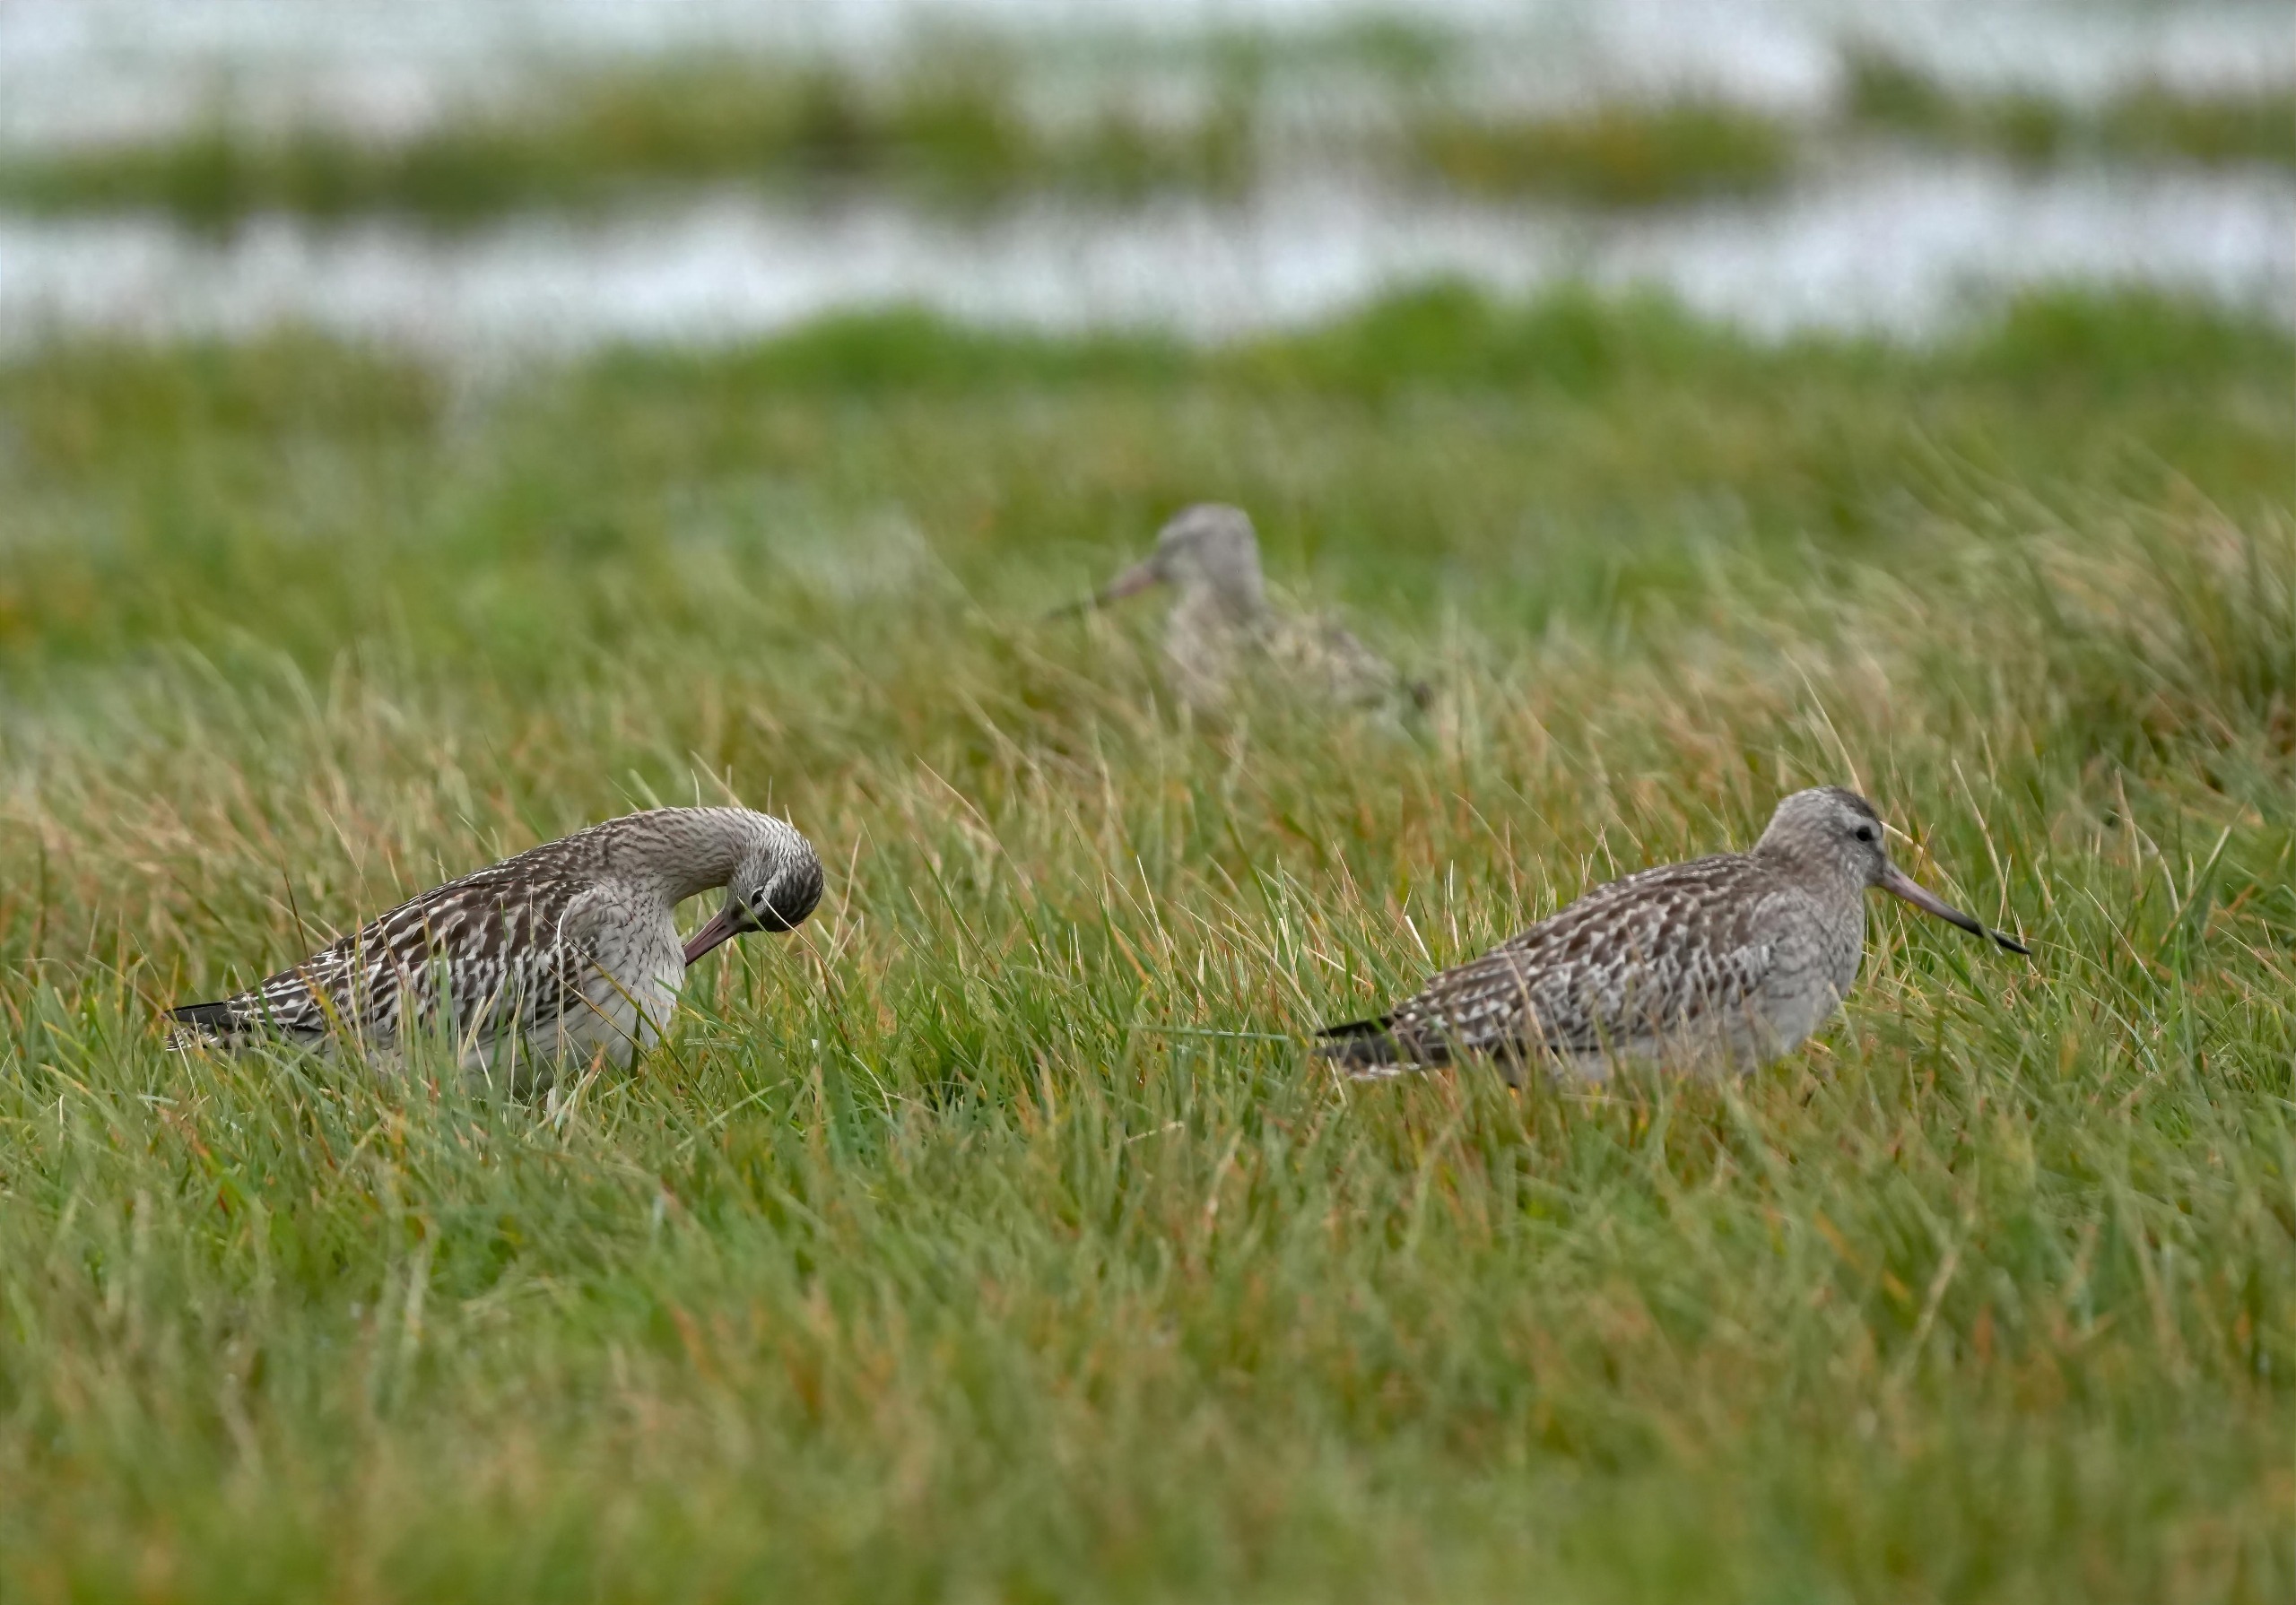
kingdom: Animalia
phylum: Chordata
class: Aves
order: Charadriiformes
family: Scolopacidae
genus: Limosa
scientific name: Limosa lapponica
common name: Lille kobbersneppe
